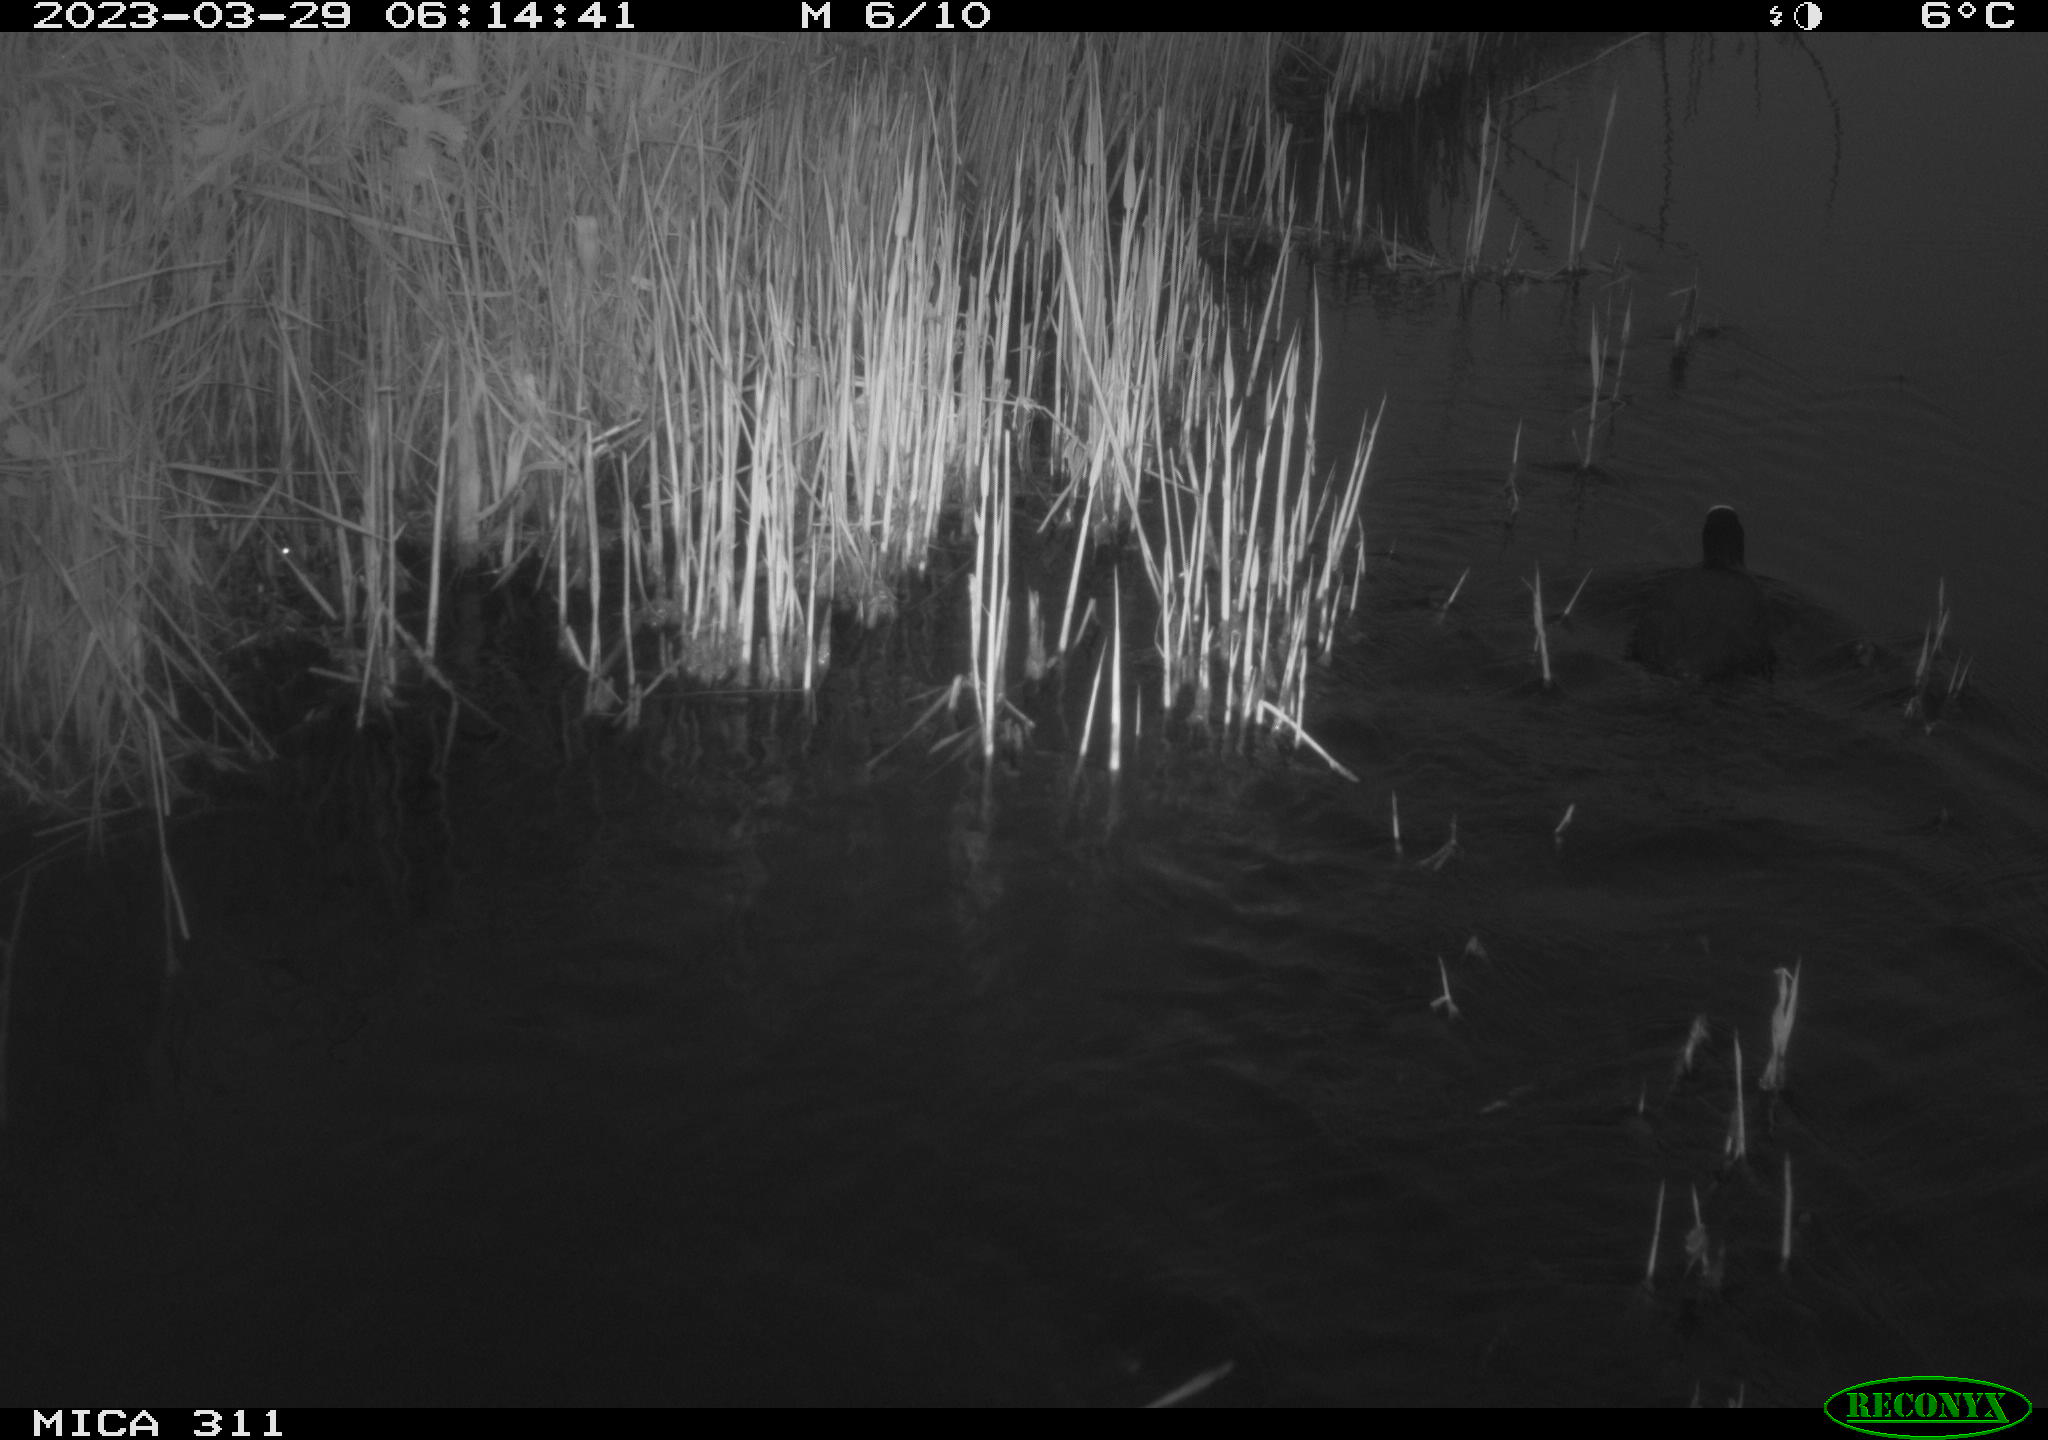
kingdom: Animalia
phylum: Chordata
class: Aves
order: Gruiformes
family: Rallidae
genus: Fulica
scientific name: Fulica atra
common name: Eurasian coot
